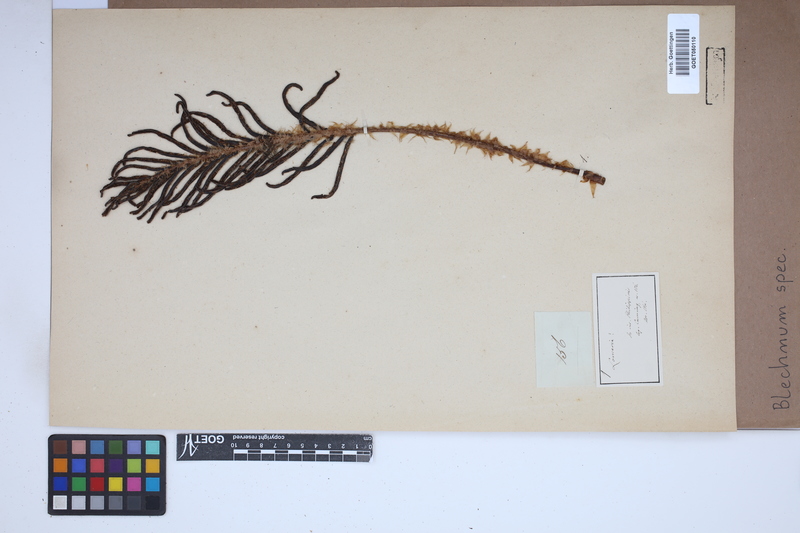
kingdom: Plantae
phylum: Tracheophyta
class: Polypodiopsida
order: Polypodiales
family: Blechnaceae
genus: Blechnum
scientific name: Blechnum
